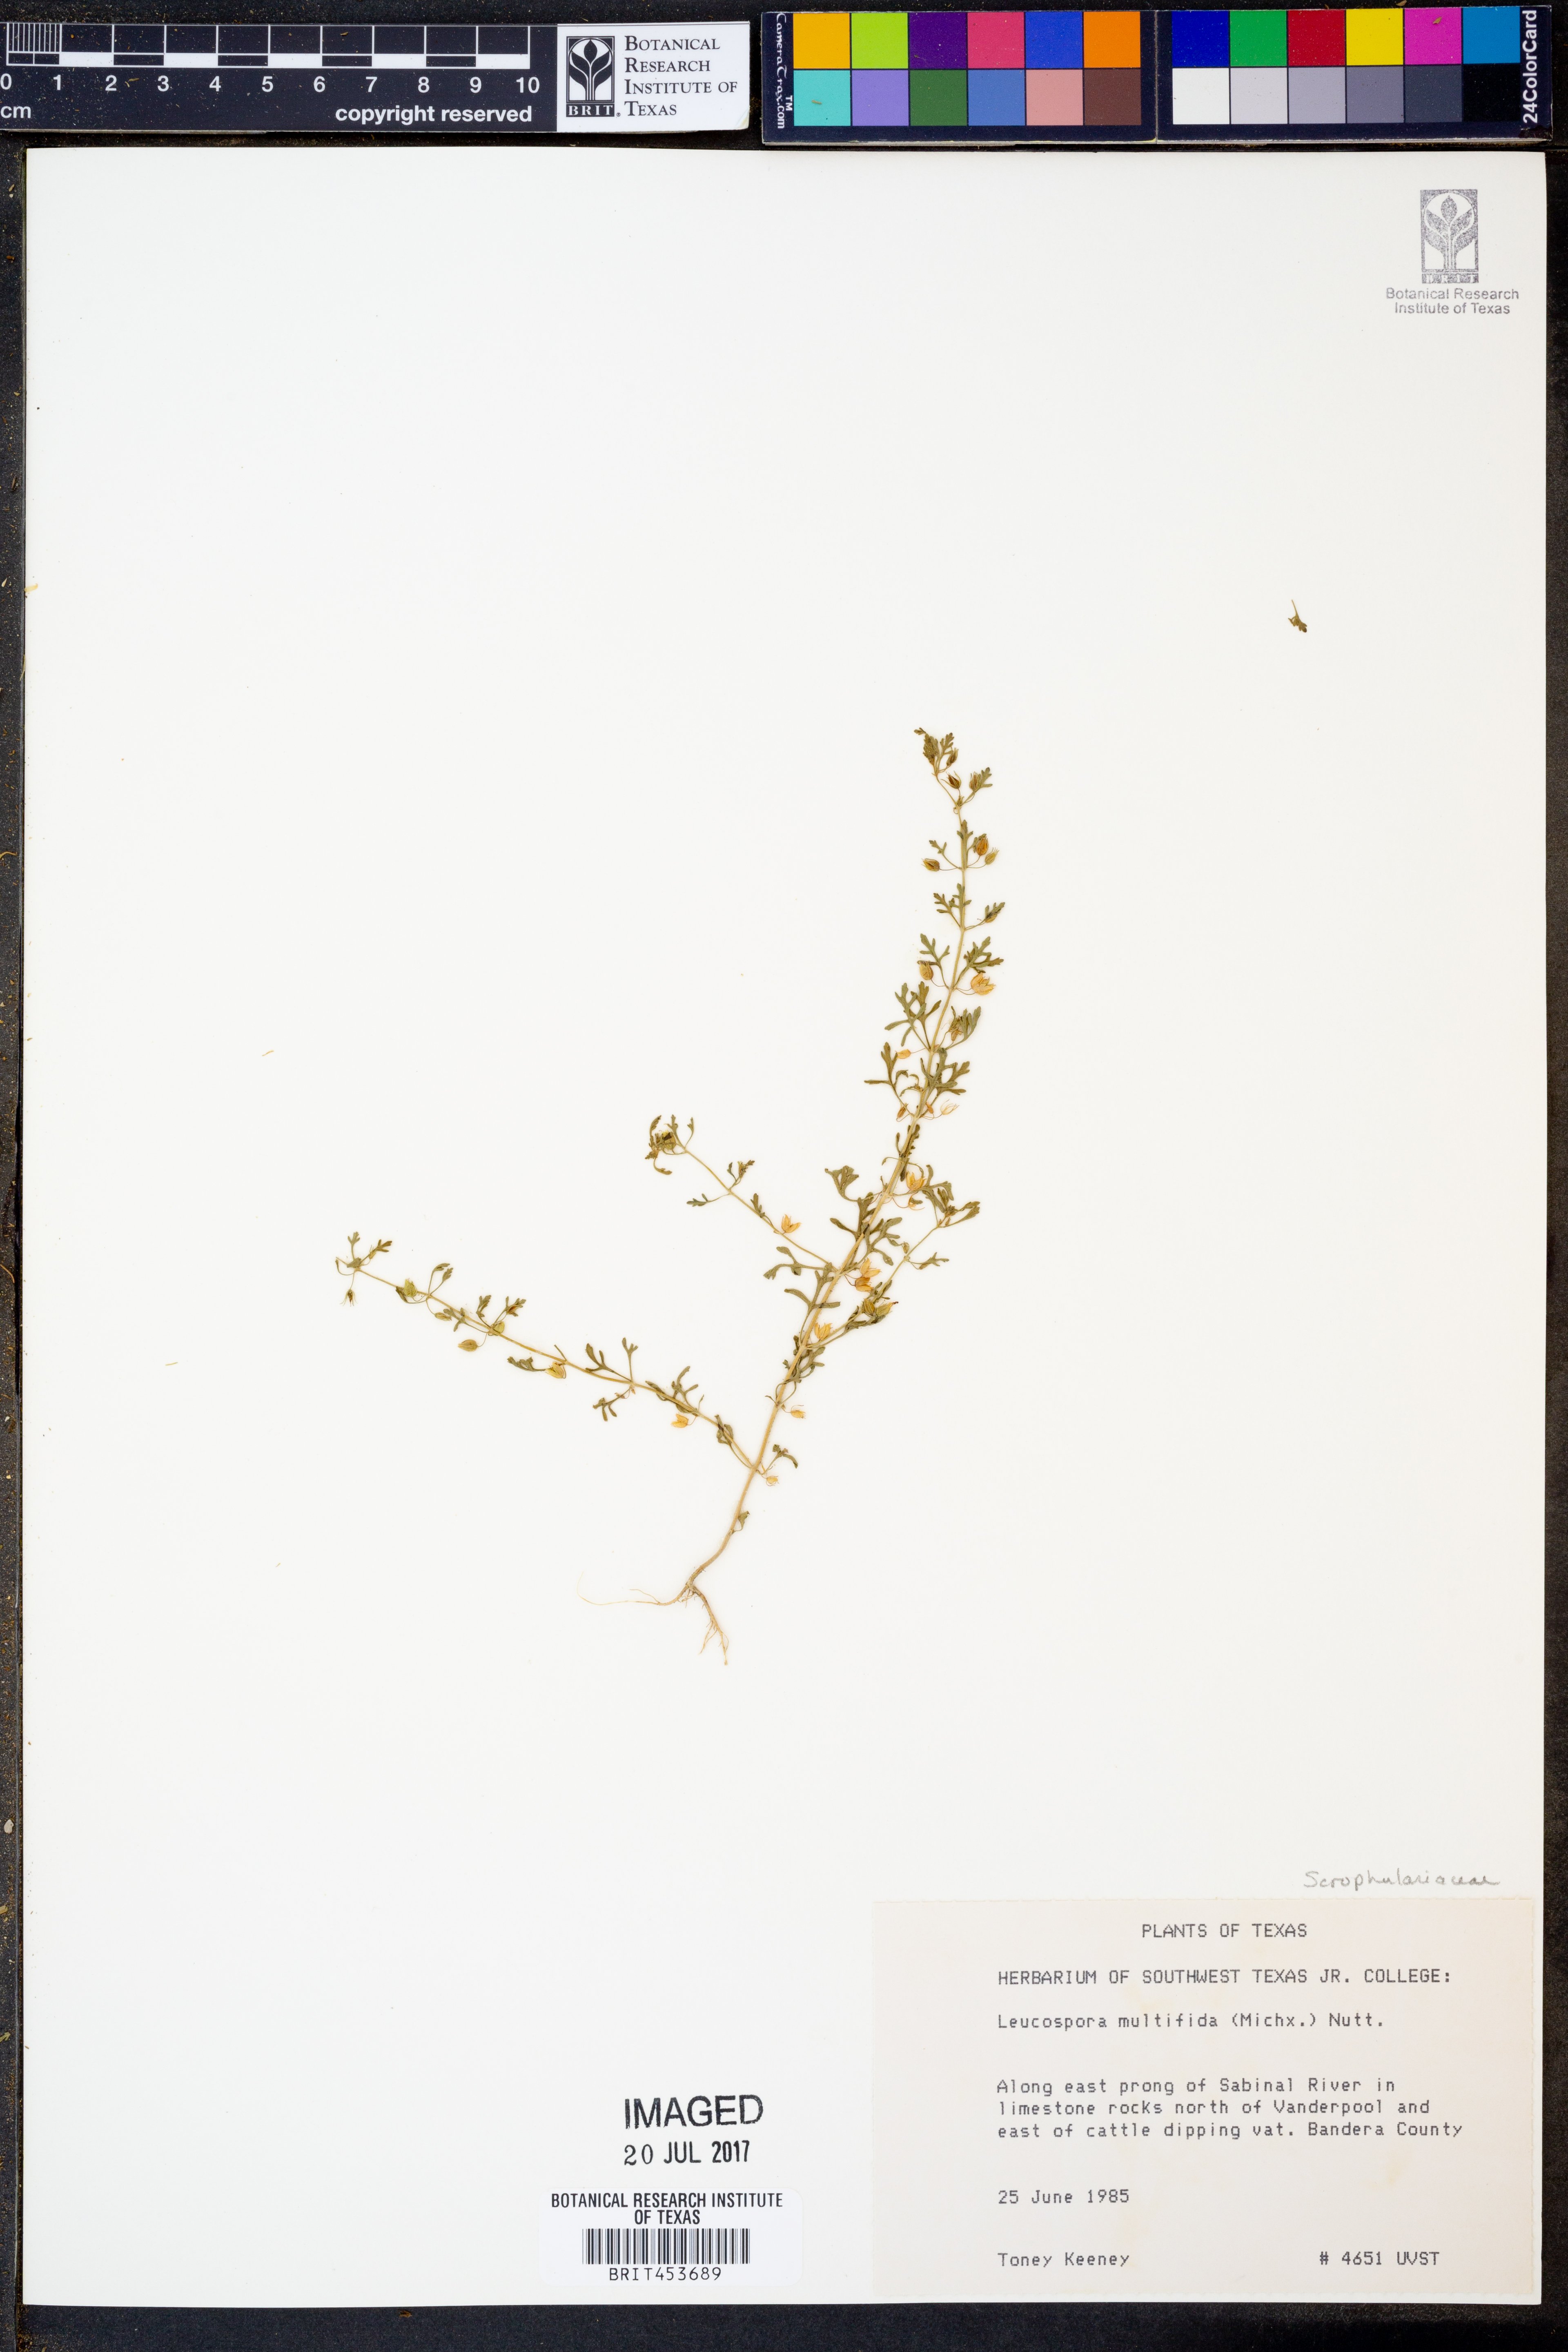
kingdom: Plantae
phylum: Tracheophyta
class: Magnoliopsida
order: Lamiales
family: Plantaginaceae
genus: Leucospora
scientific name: Leucospora multifida
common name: Narrow-leaf paleseed
